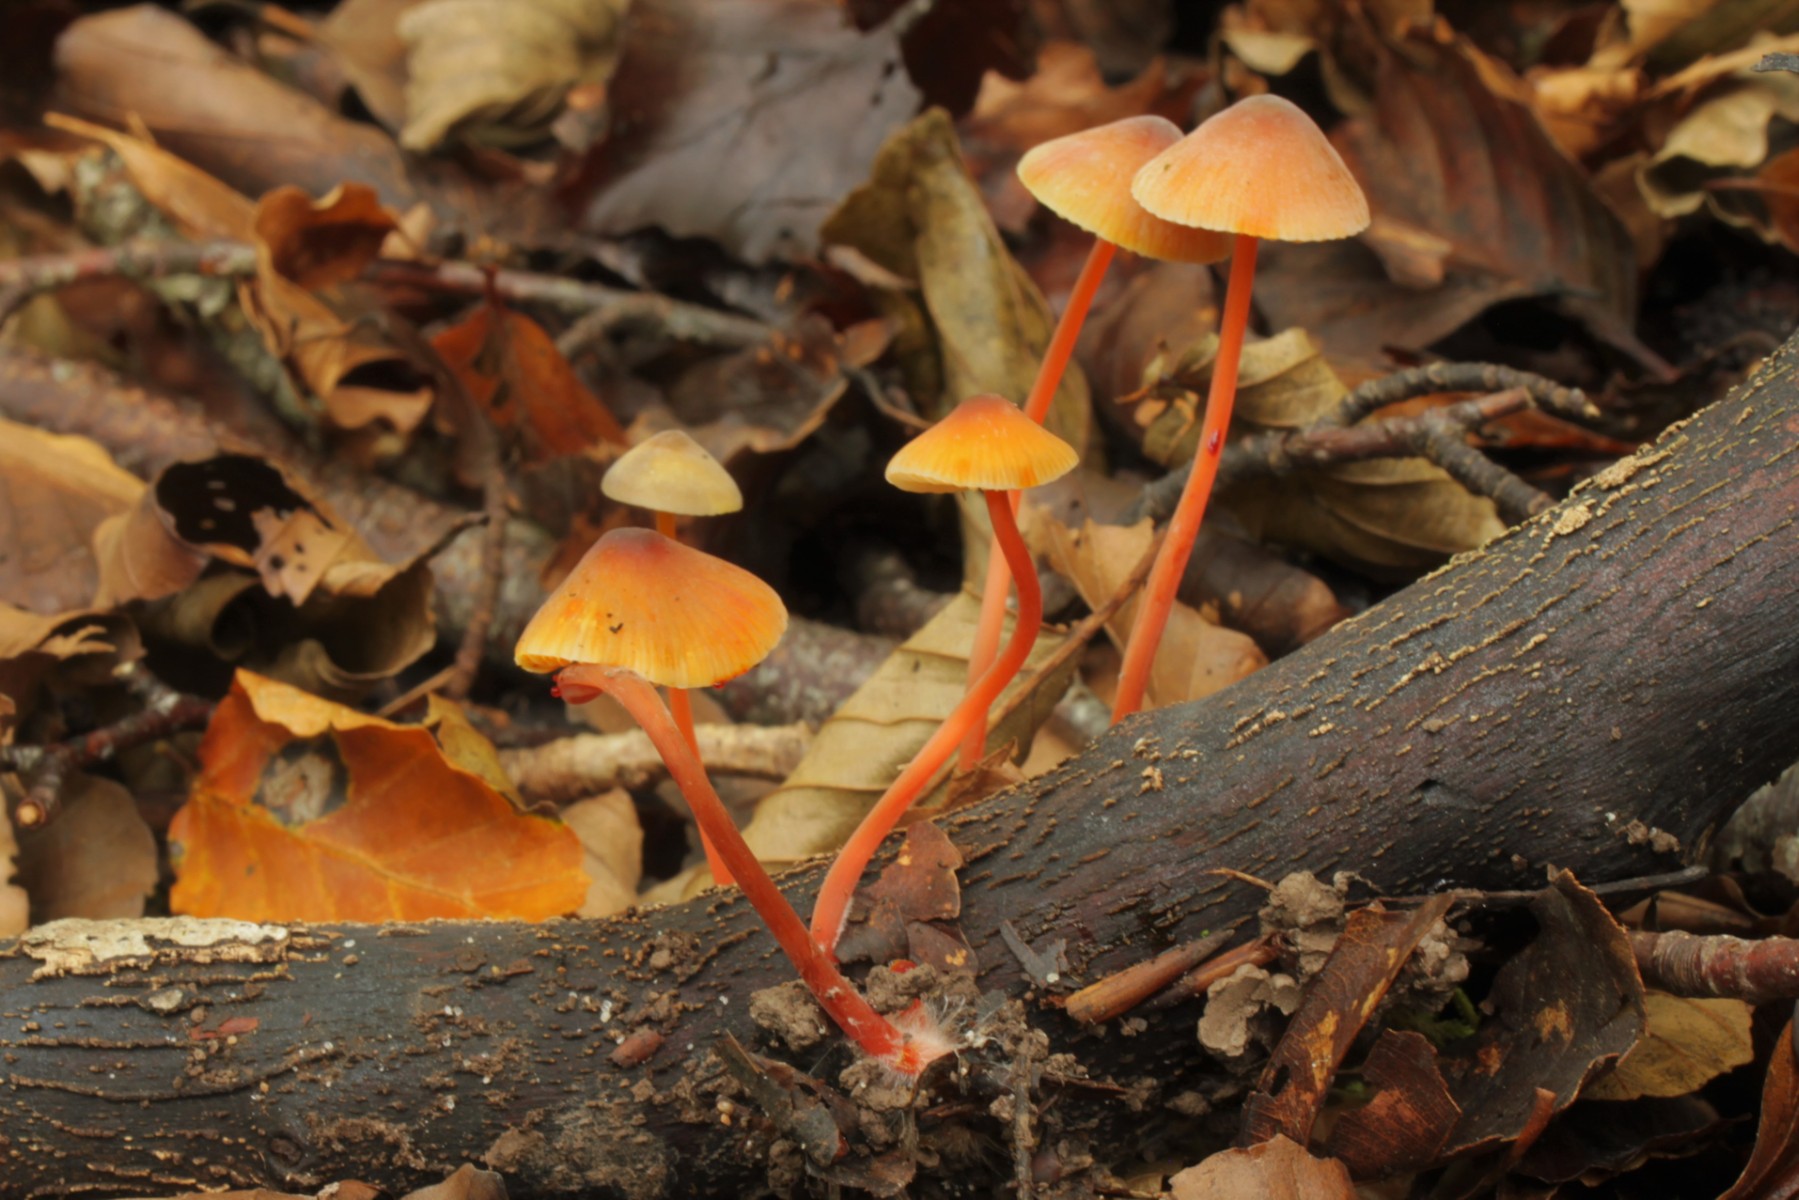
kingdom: Fungi
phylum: Basidiomycota
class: Agaricomycetes
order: Agaricales
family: Mycenaceae
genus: Mycena
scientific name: Mycena crocata
